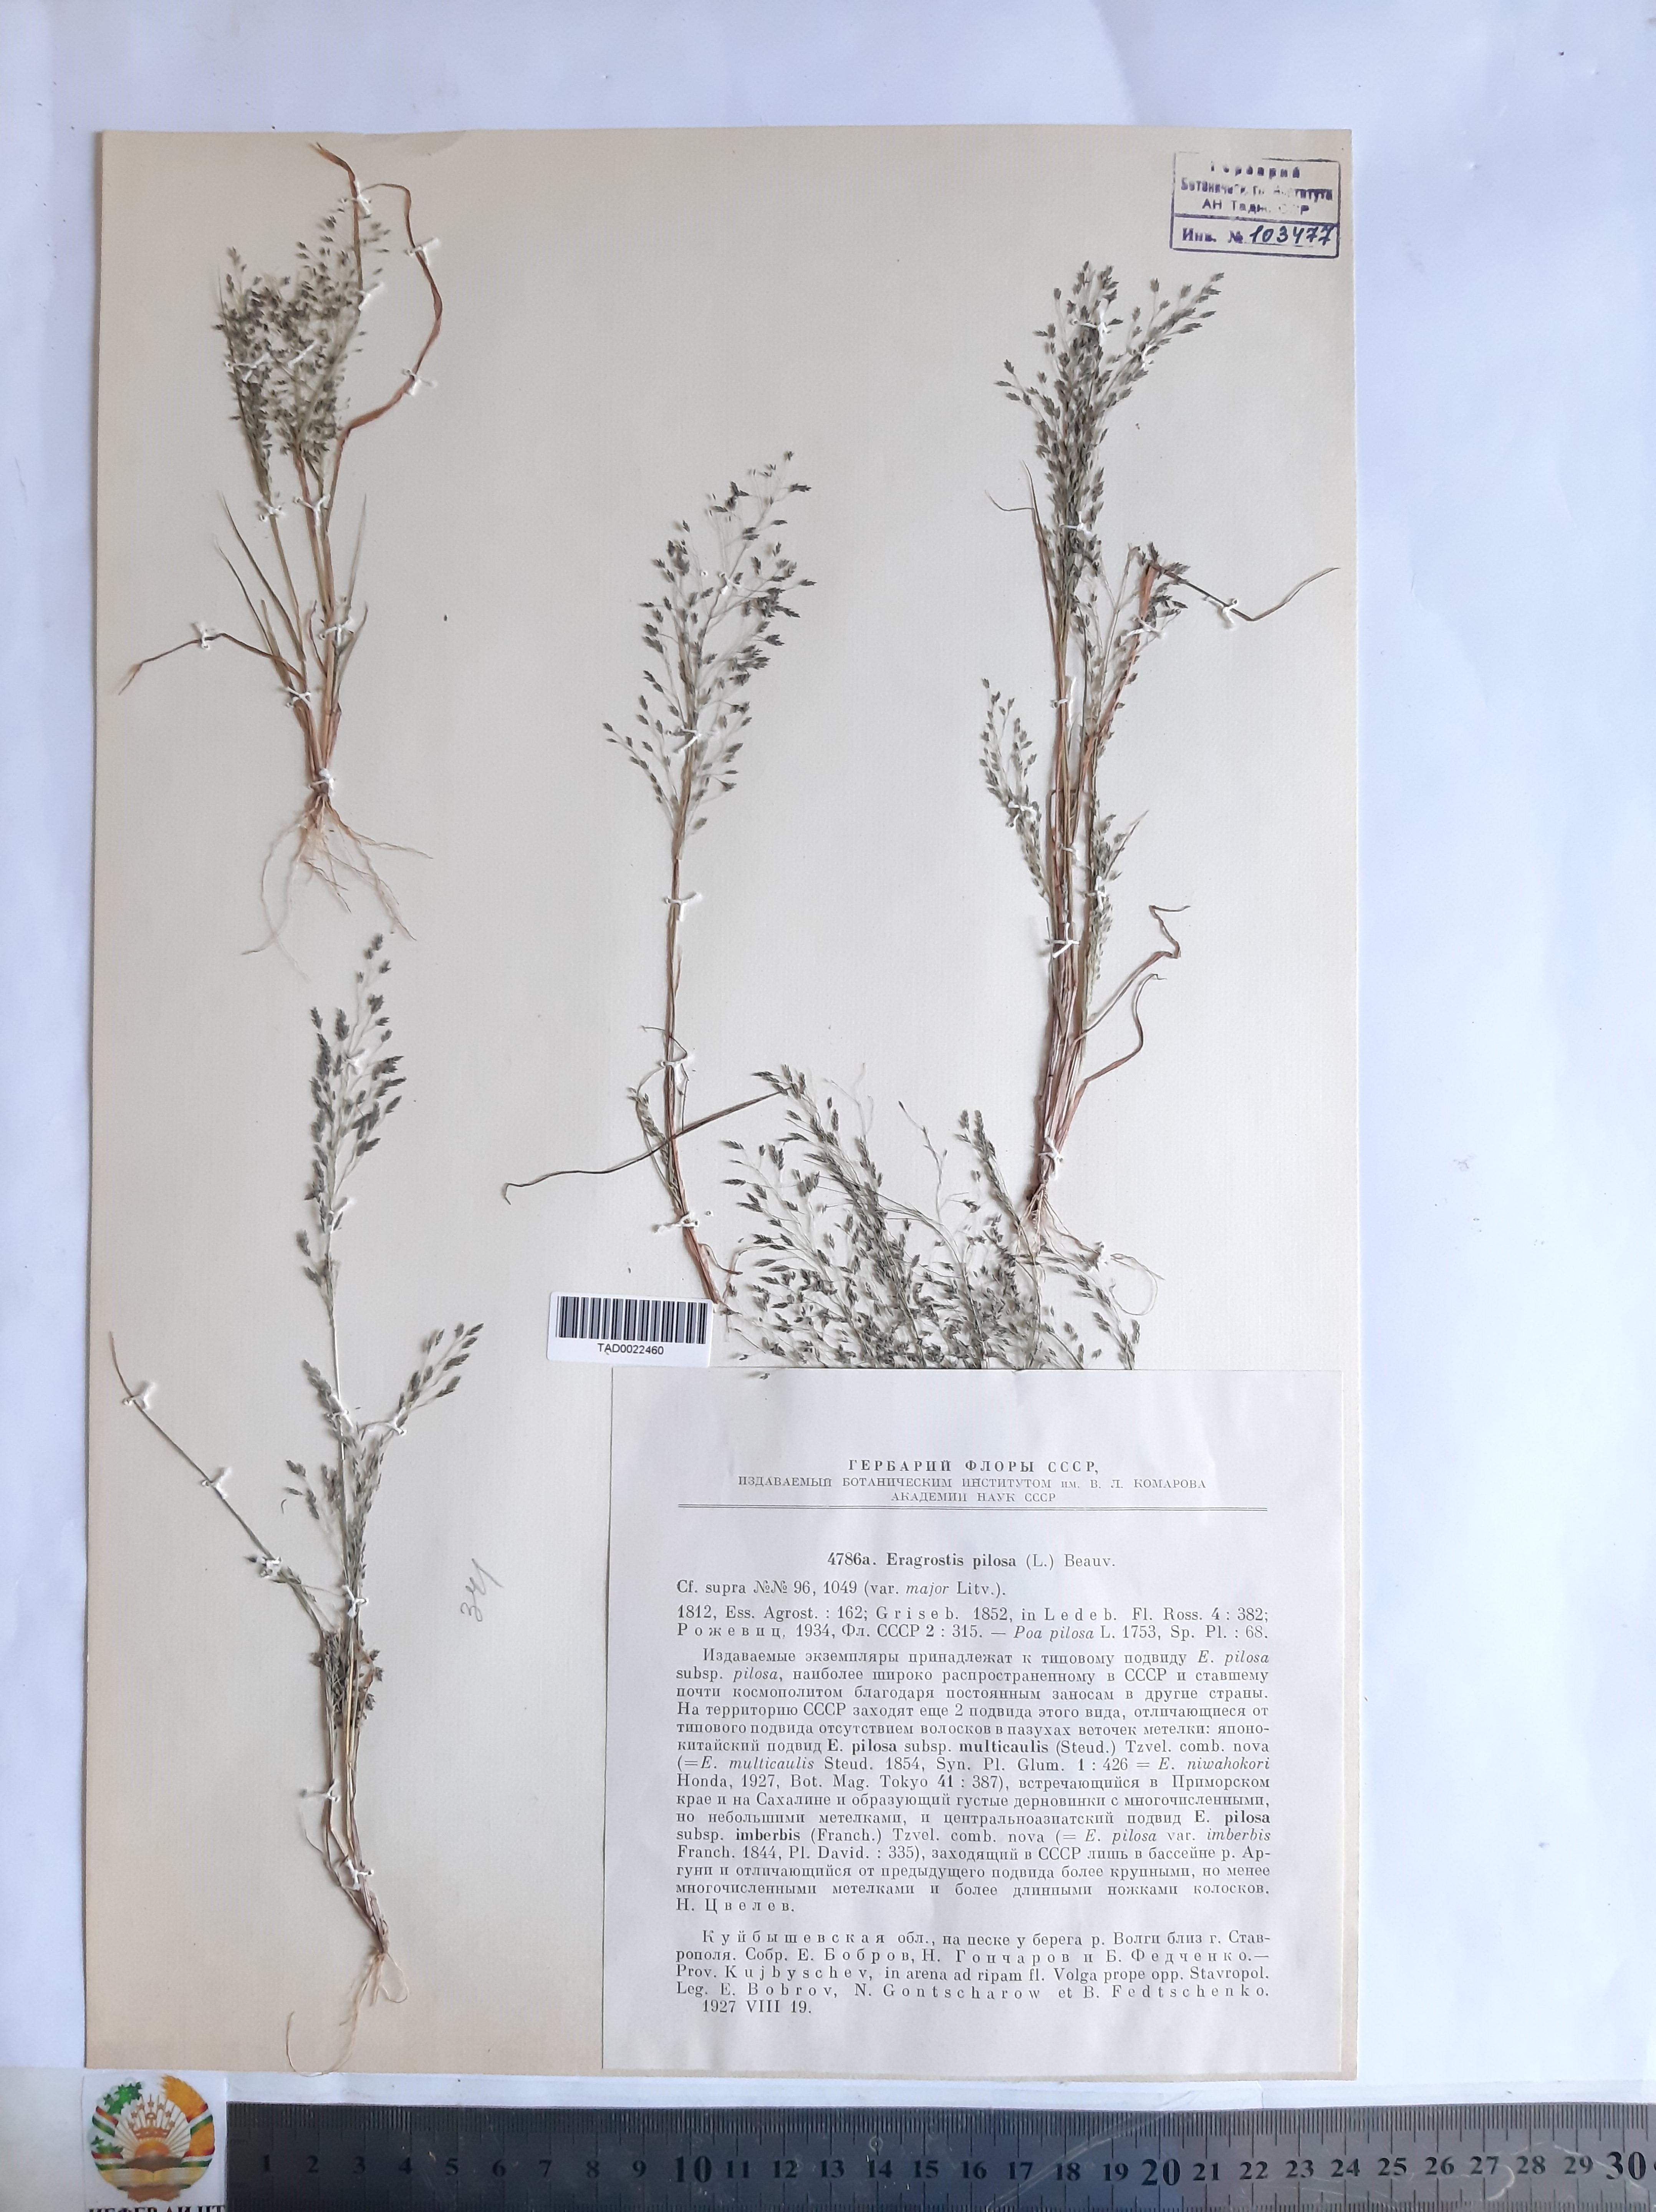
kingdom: Plantae
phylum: Tracheophyta
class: Liliopsida
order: Poales
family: Poaceae
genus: Eragrostis
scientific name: Eragrostis pilosa
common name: Indian lovegrass
